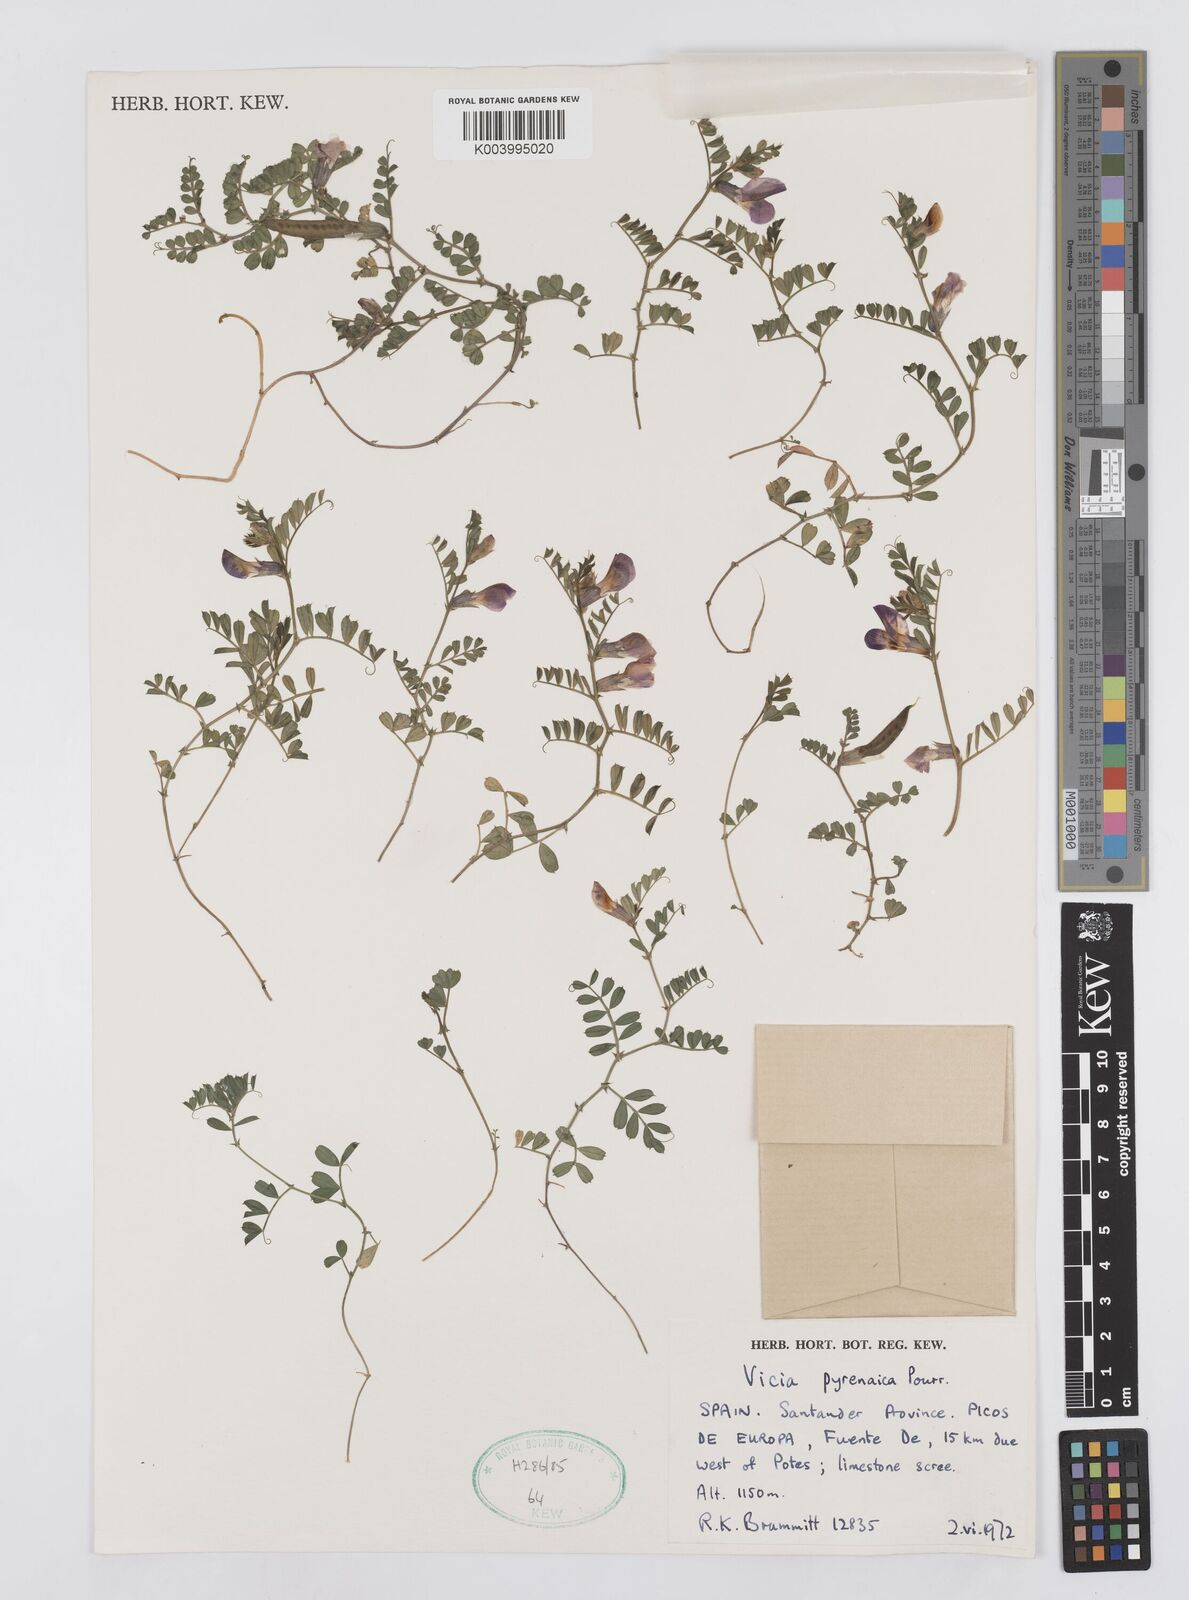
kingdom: Plantae
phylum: Tracheophyta
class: Magnoliopsida
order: Fabales
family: Fabaceae
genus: Vicia
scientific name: Vicia pyrenaica
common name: Pyrenean vetch
